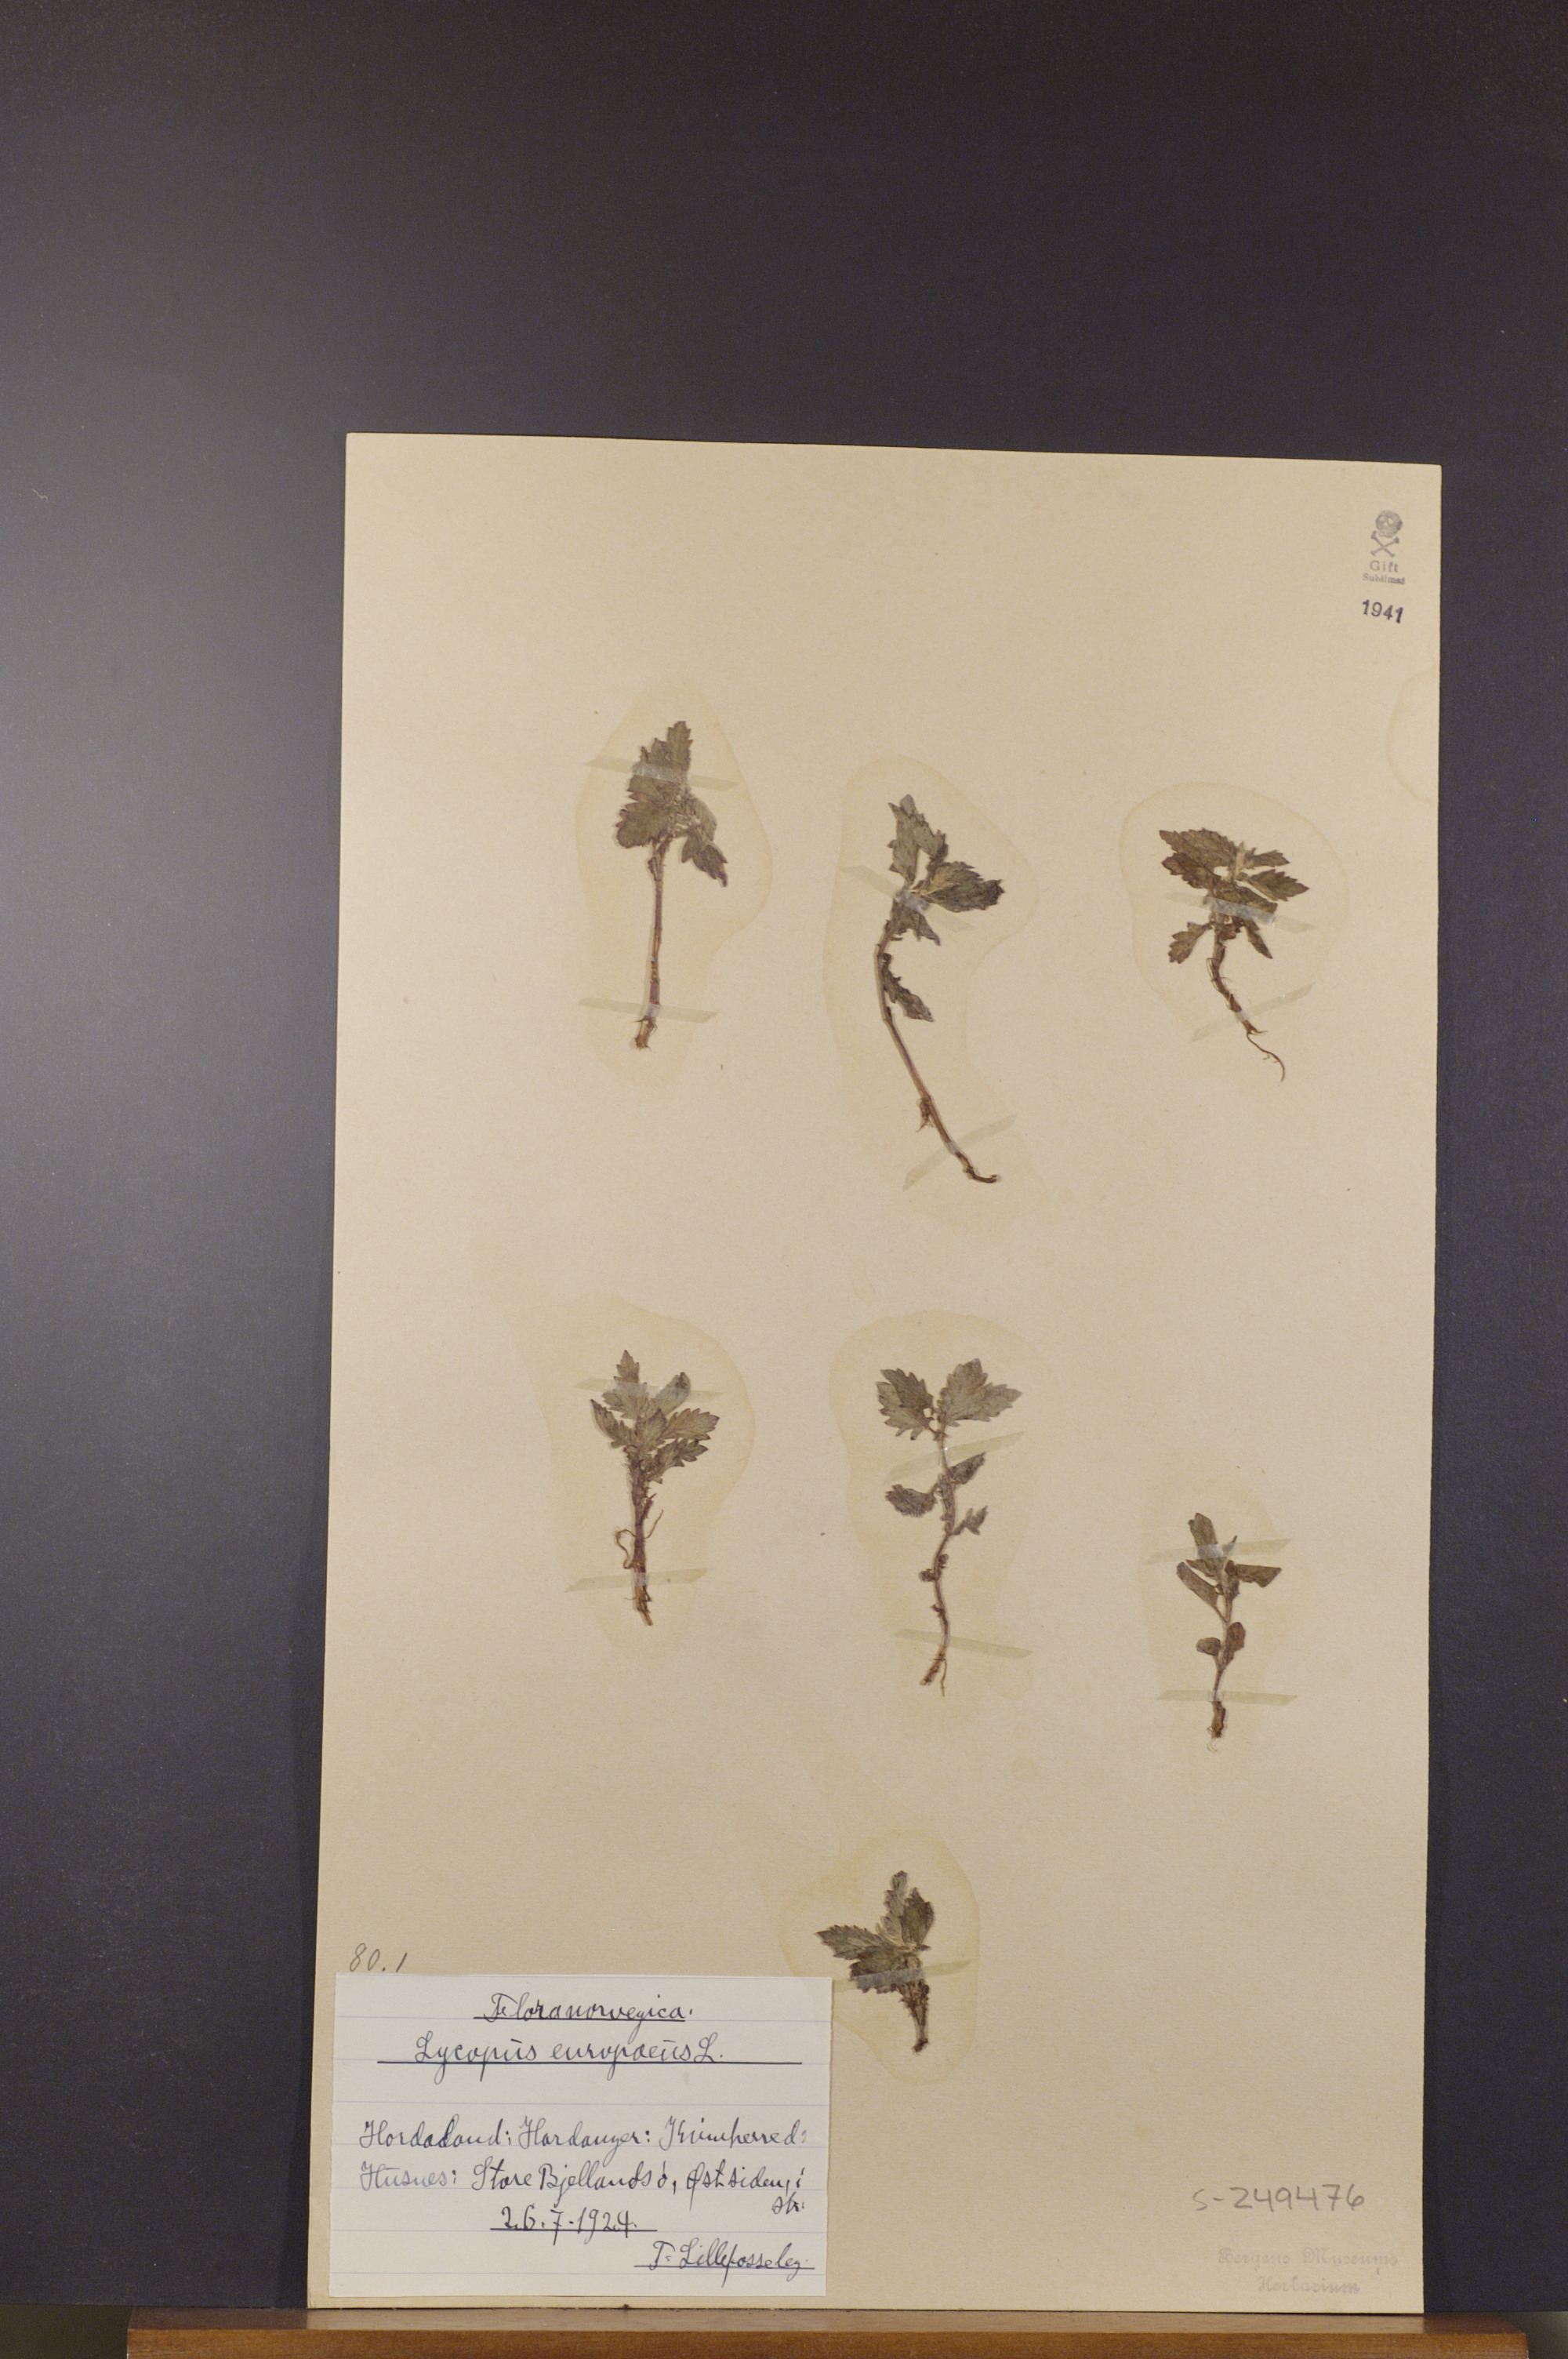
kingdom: Plantae
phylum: Tracheophyta
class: Magnoliopsida
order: Lamiales
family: Lamiaceae
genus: Lycopus
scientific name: Lycopus europaeus
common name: European bugleweed
